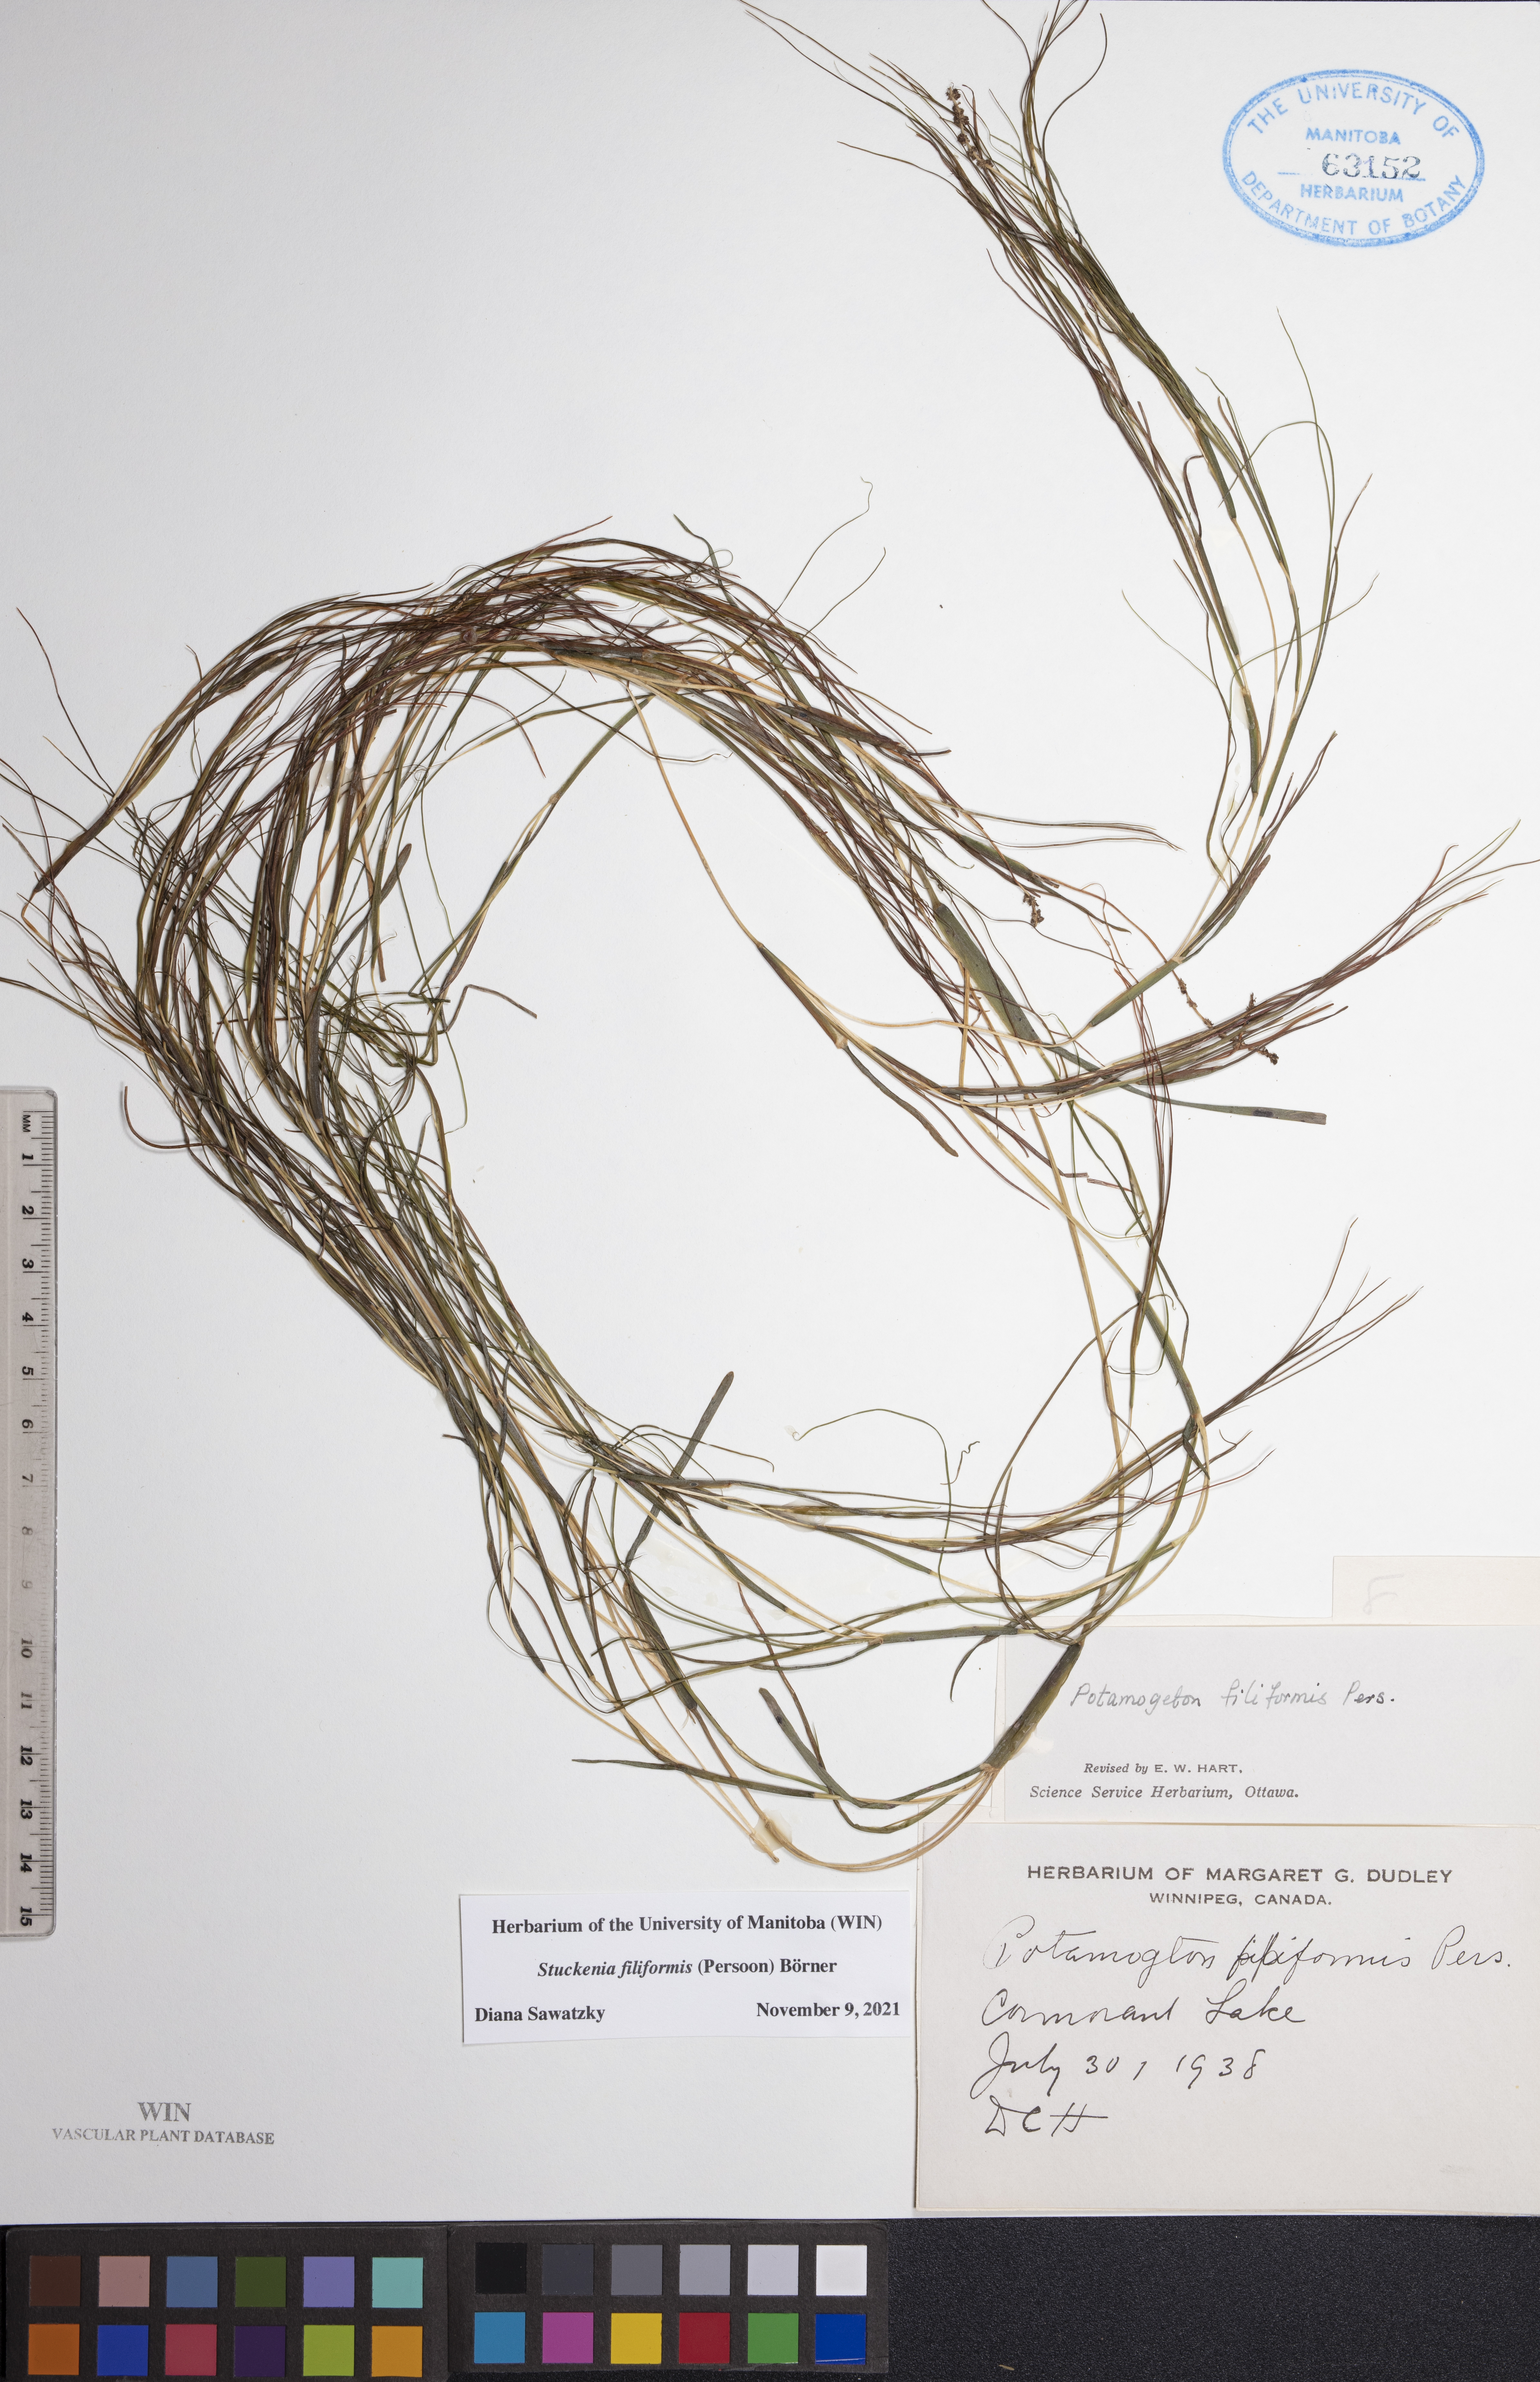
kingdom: Plantae
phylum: Tracheophyta
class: Liliopsida
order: Alismatales
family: Potamogetonaceae
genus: Stuckenia
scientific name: Stuckenia filiformis
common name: Alpine thread-leaved pondweed
